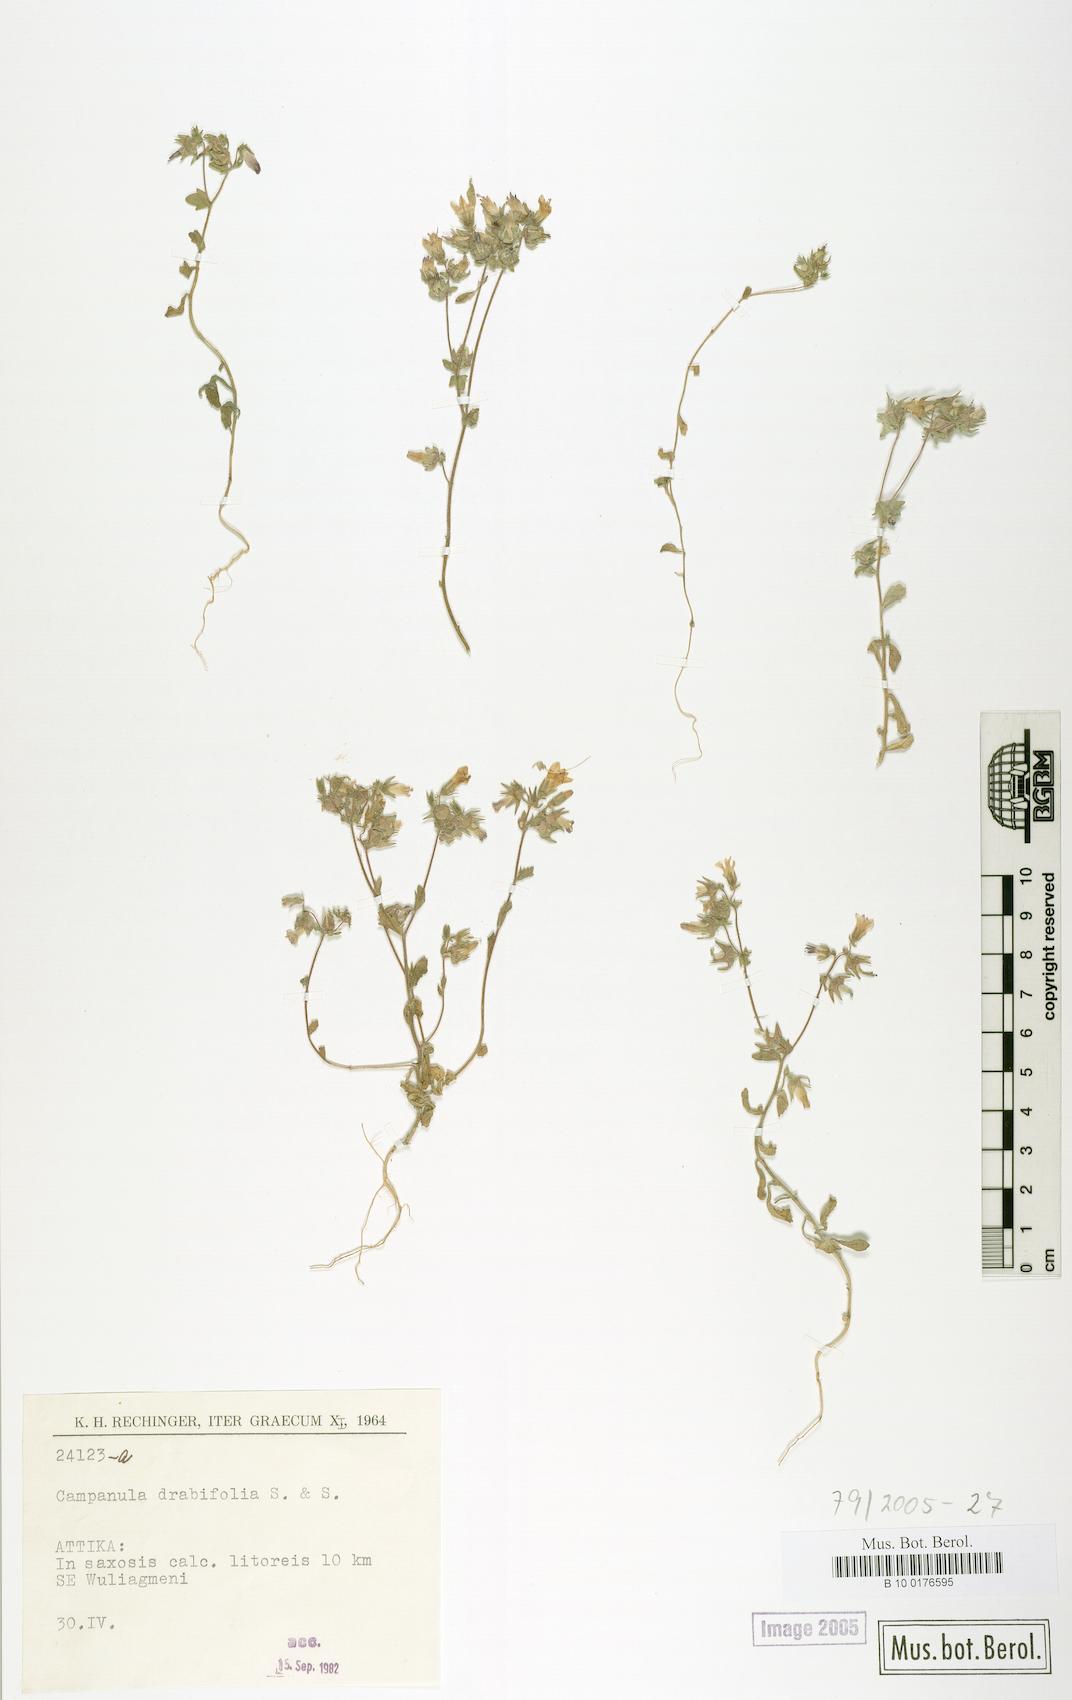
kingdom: Plantae
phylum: Tracheophyta
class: Magnoliopsida
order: Asterales
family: Campanulaceae
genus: Campanula
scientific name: Campanula drabifolia
